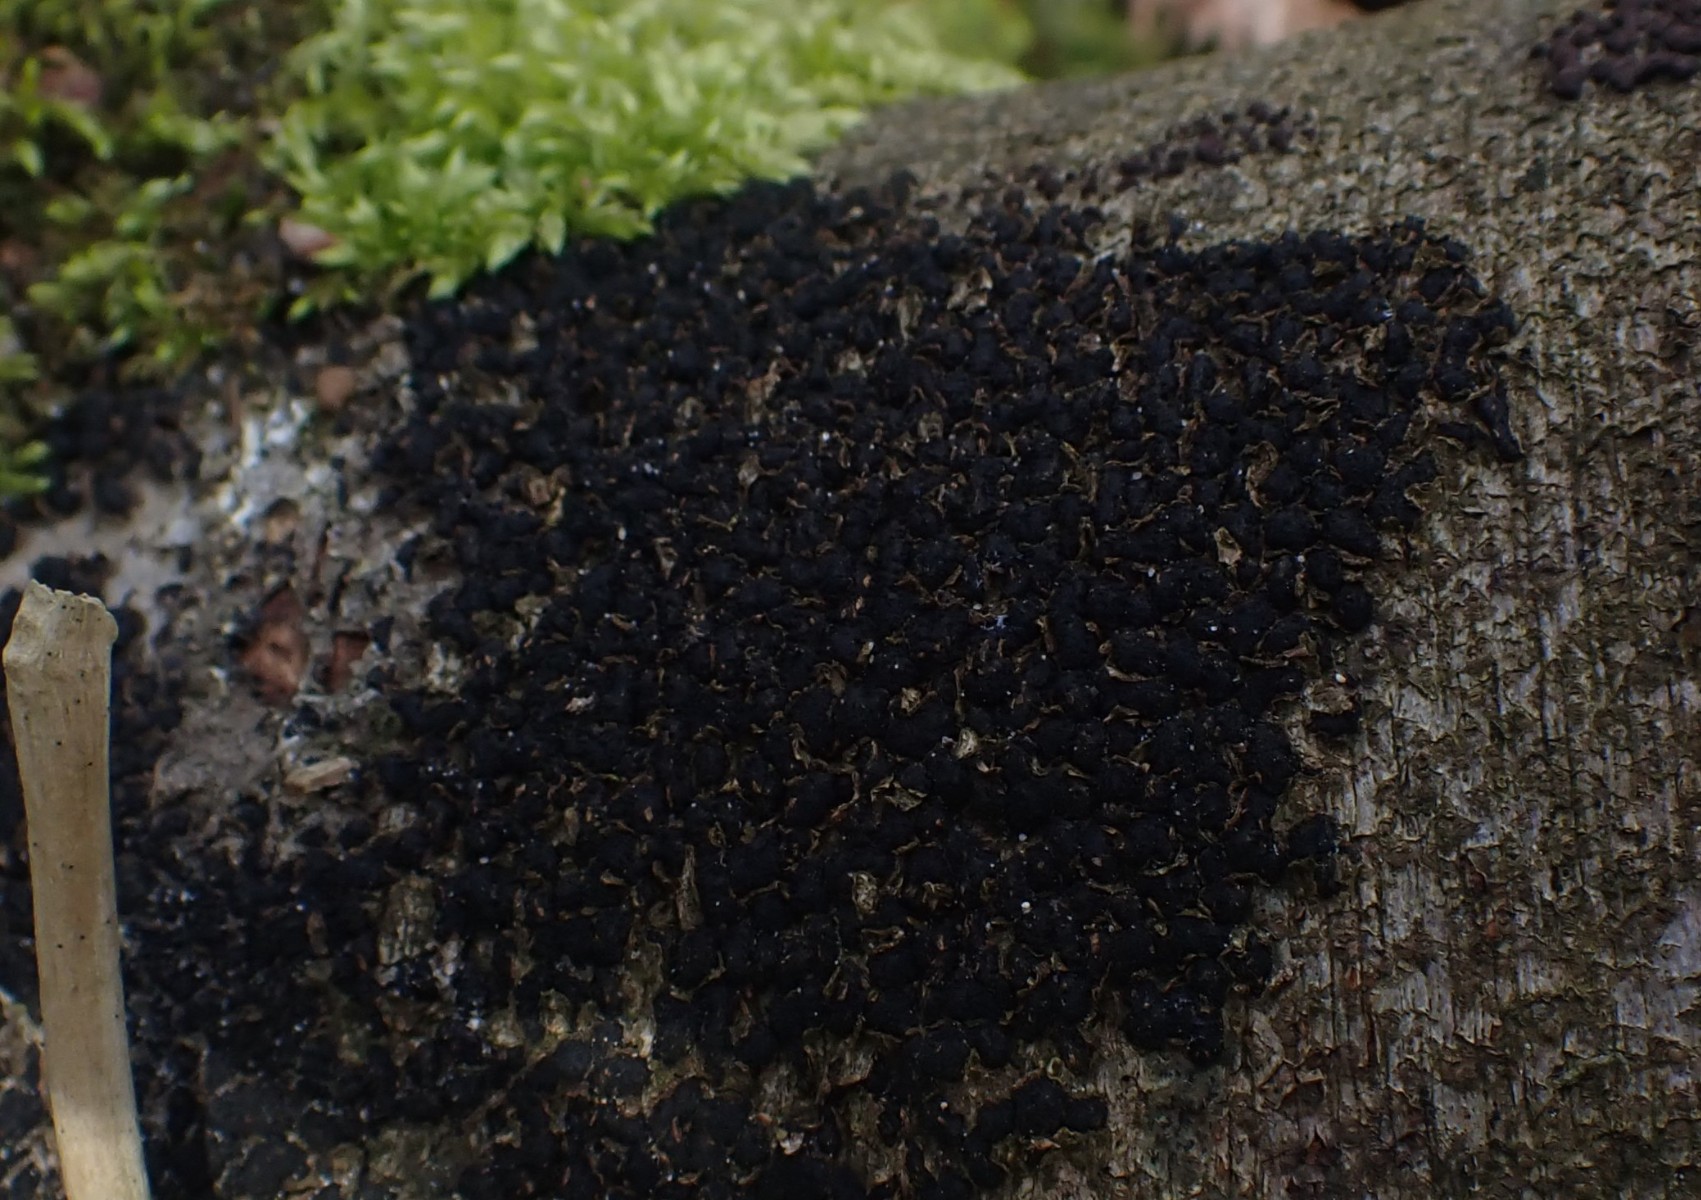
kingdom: Fungi
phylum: Ascomycota
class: Sordariomycetes
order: Xylariales
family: Melogrammataceae
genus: Melogramma
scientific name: Melogramma spiniferum
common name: bøgefod-kulhals
